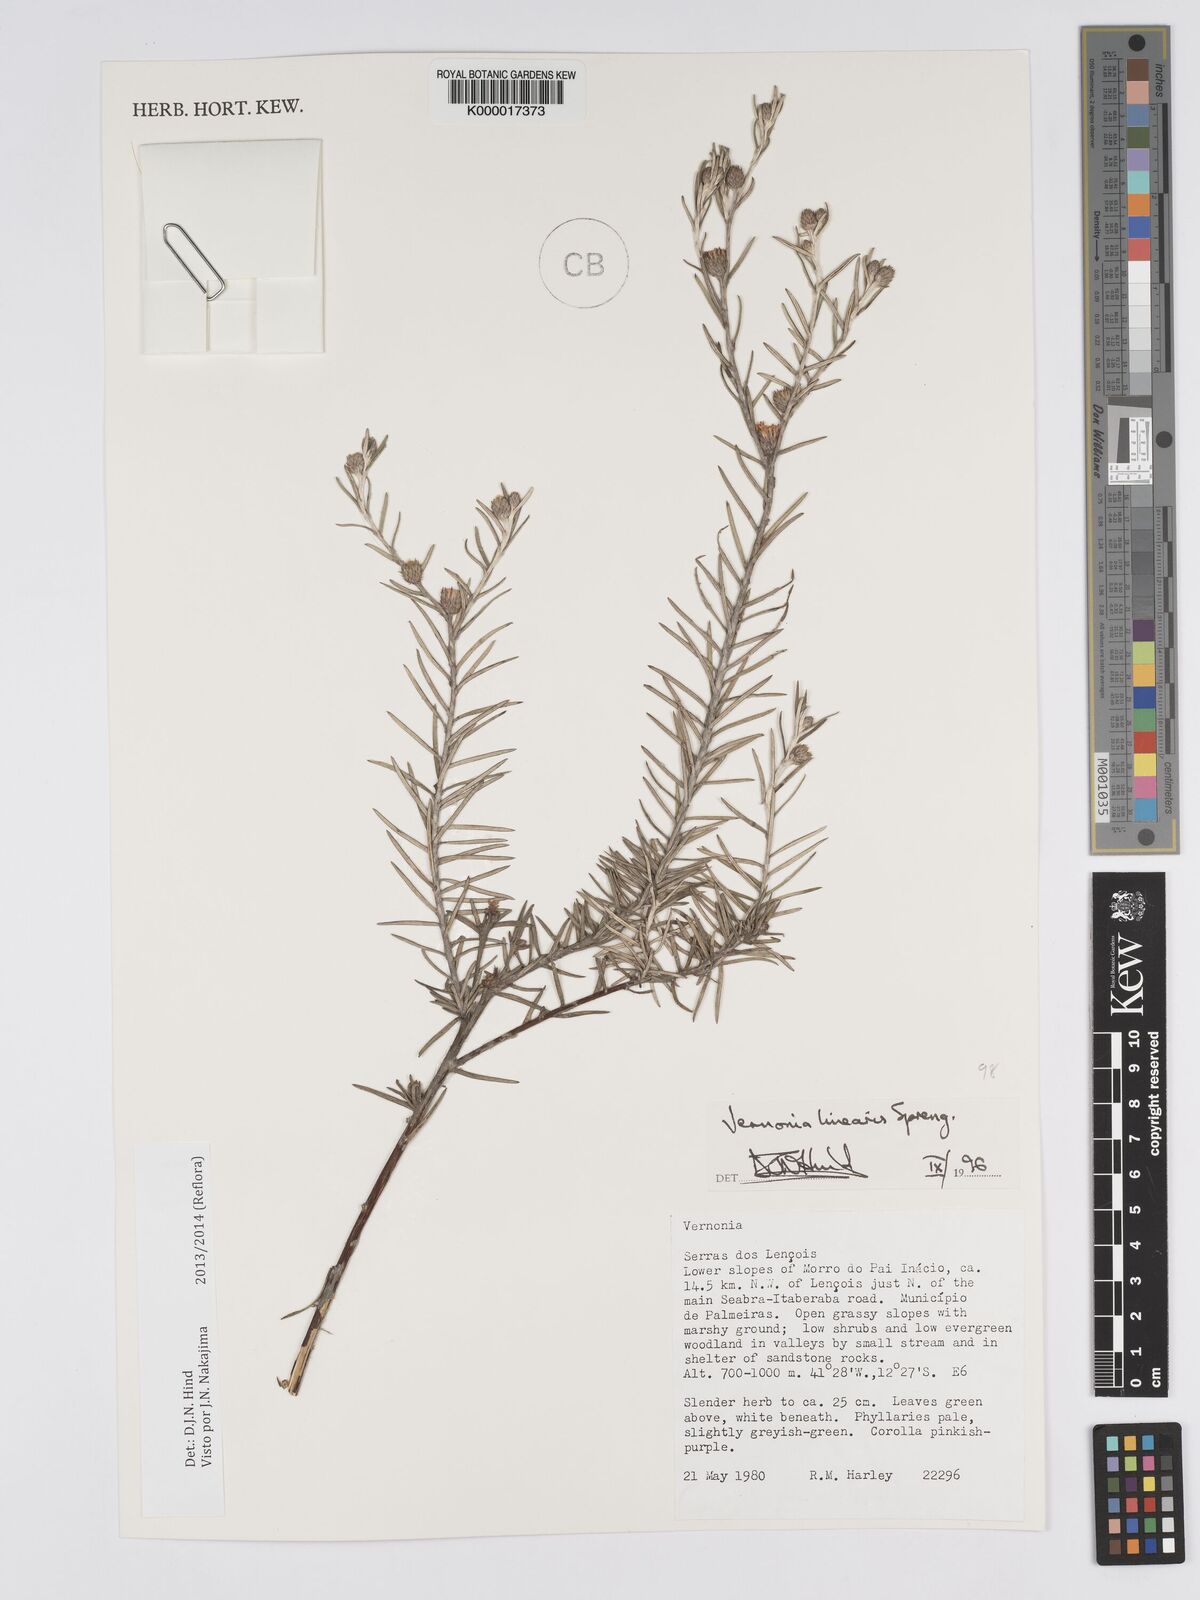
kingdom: Plantae
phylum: Tracheophyta
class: Magnoliopsida
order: Asterales
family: Asteraceae
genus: Lessingianthus
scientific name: Lessingianthus linearis
